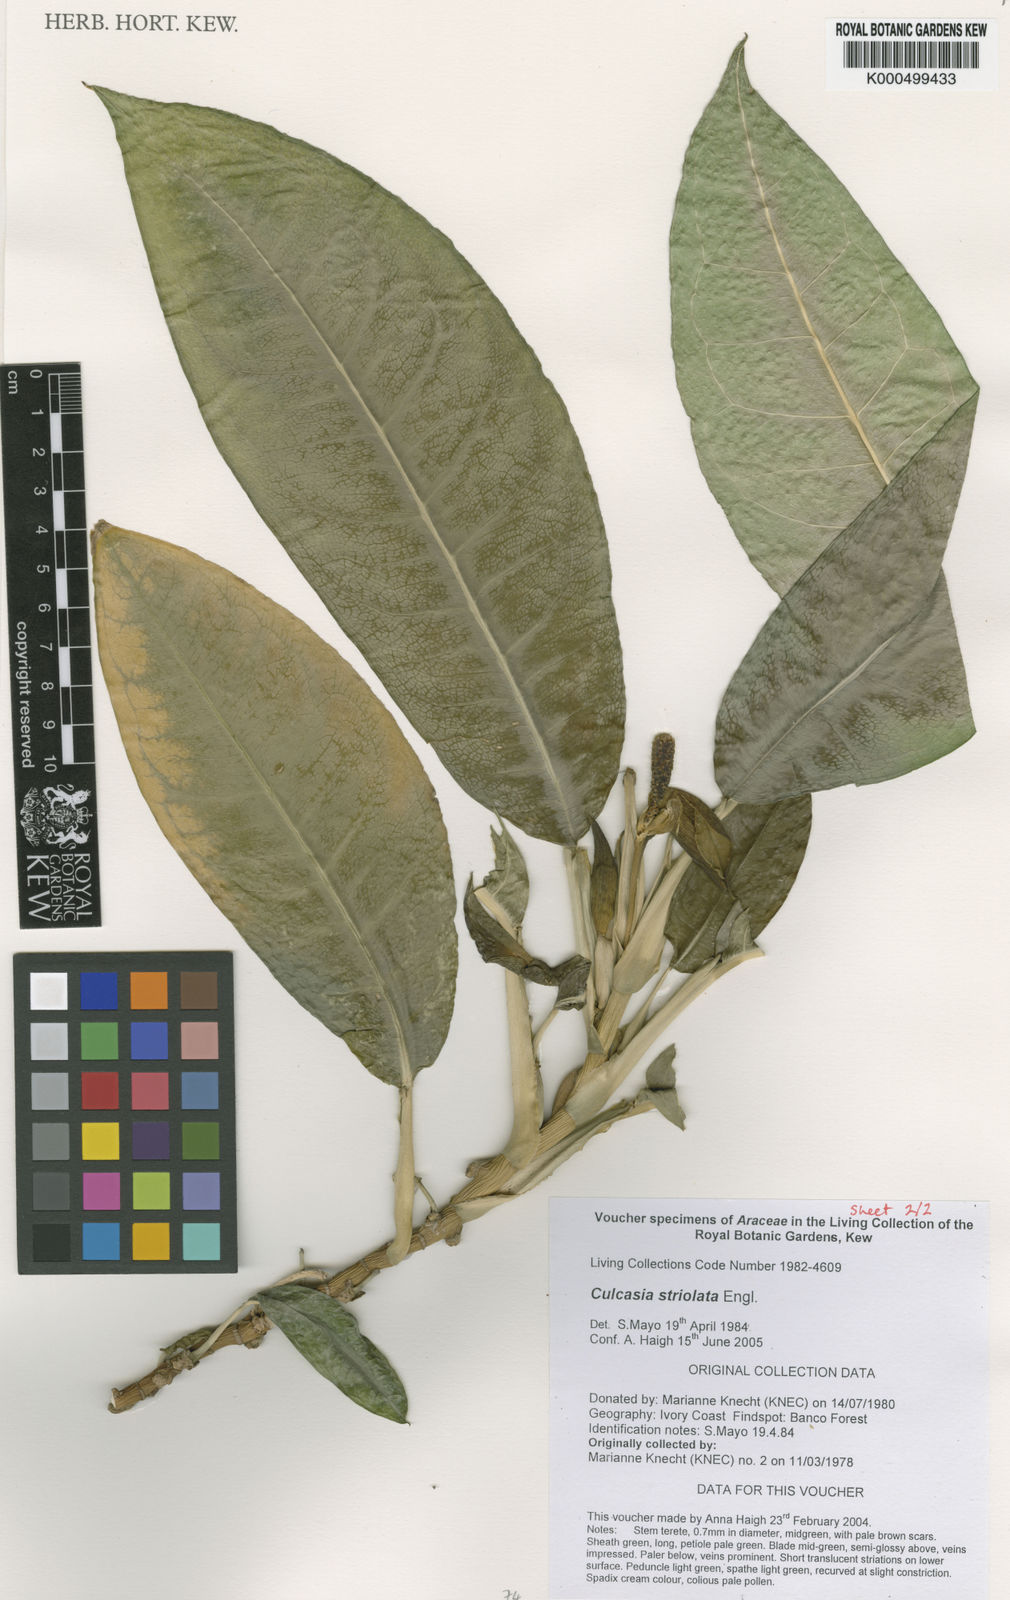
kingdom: Plantae
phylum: Tracheophyta
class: Liliopsida
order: Alismatales
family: Araceae
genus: Culcasia
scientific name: Culcasia striolata
